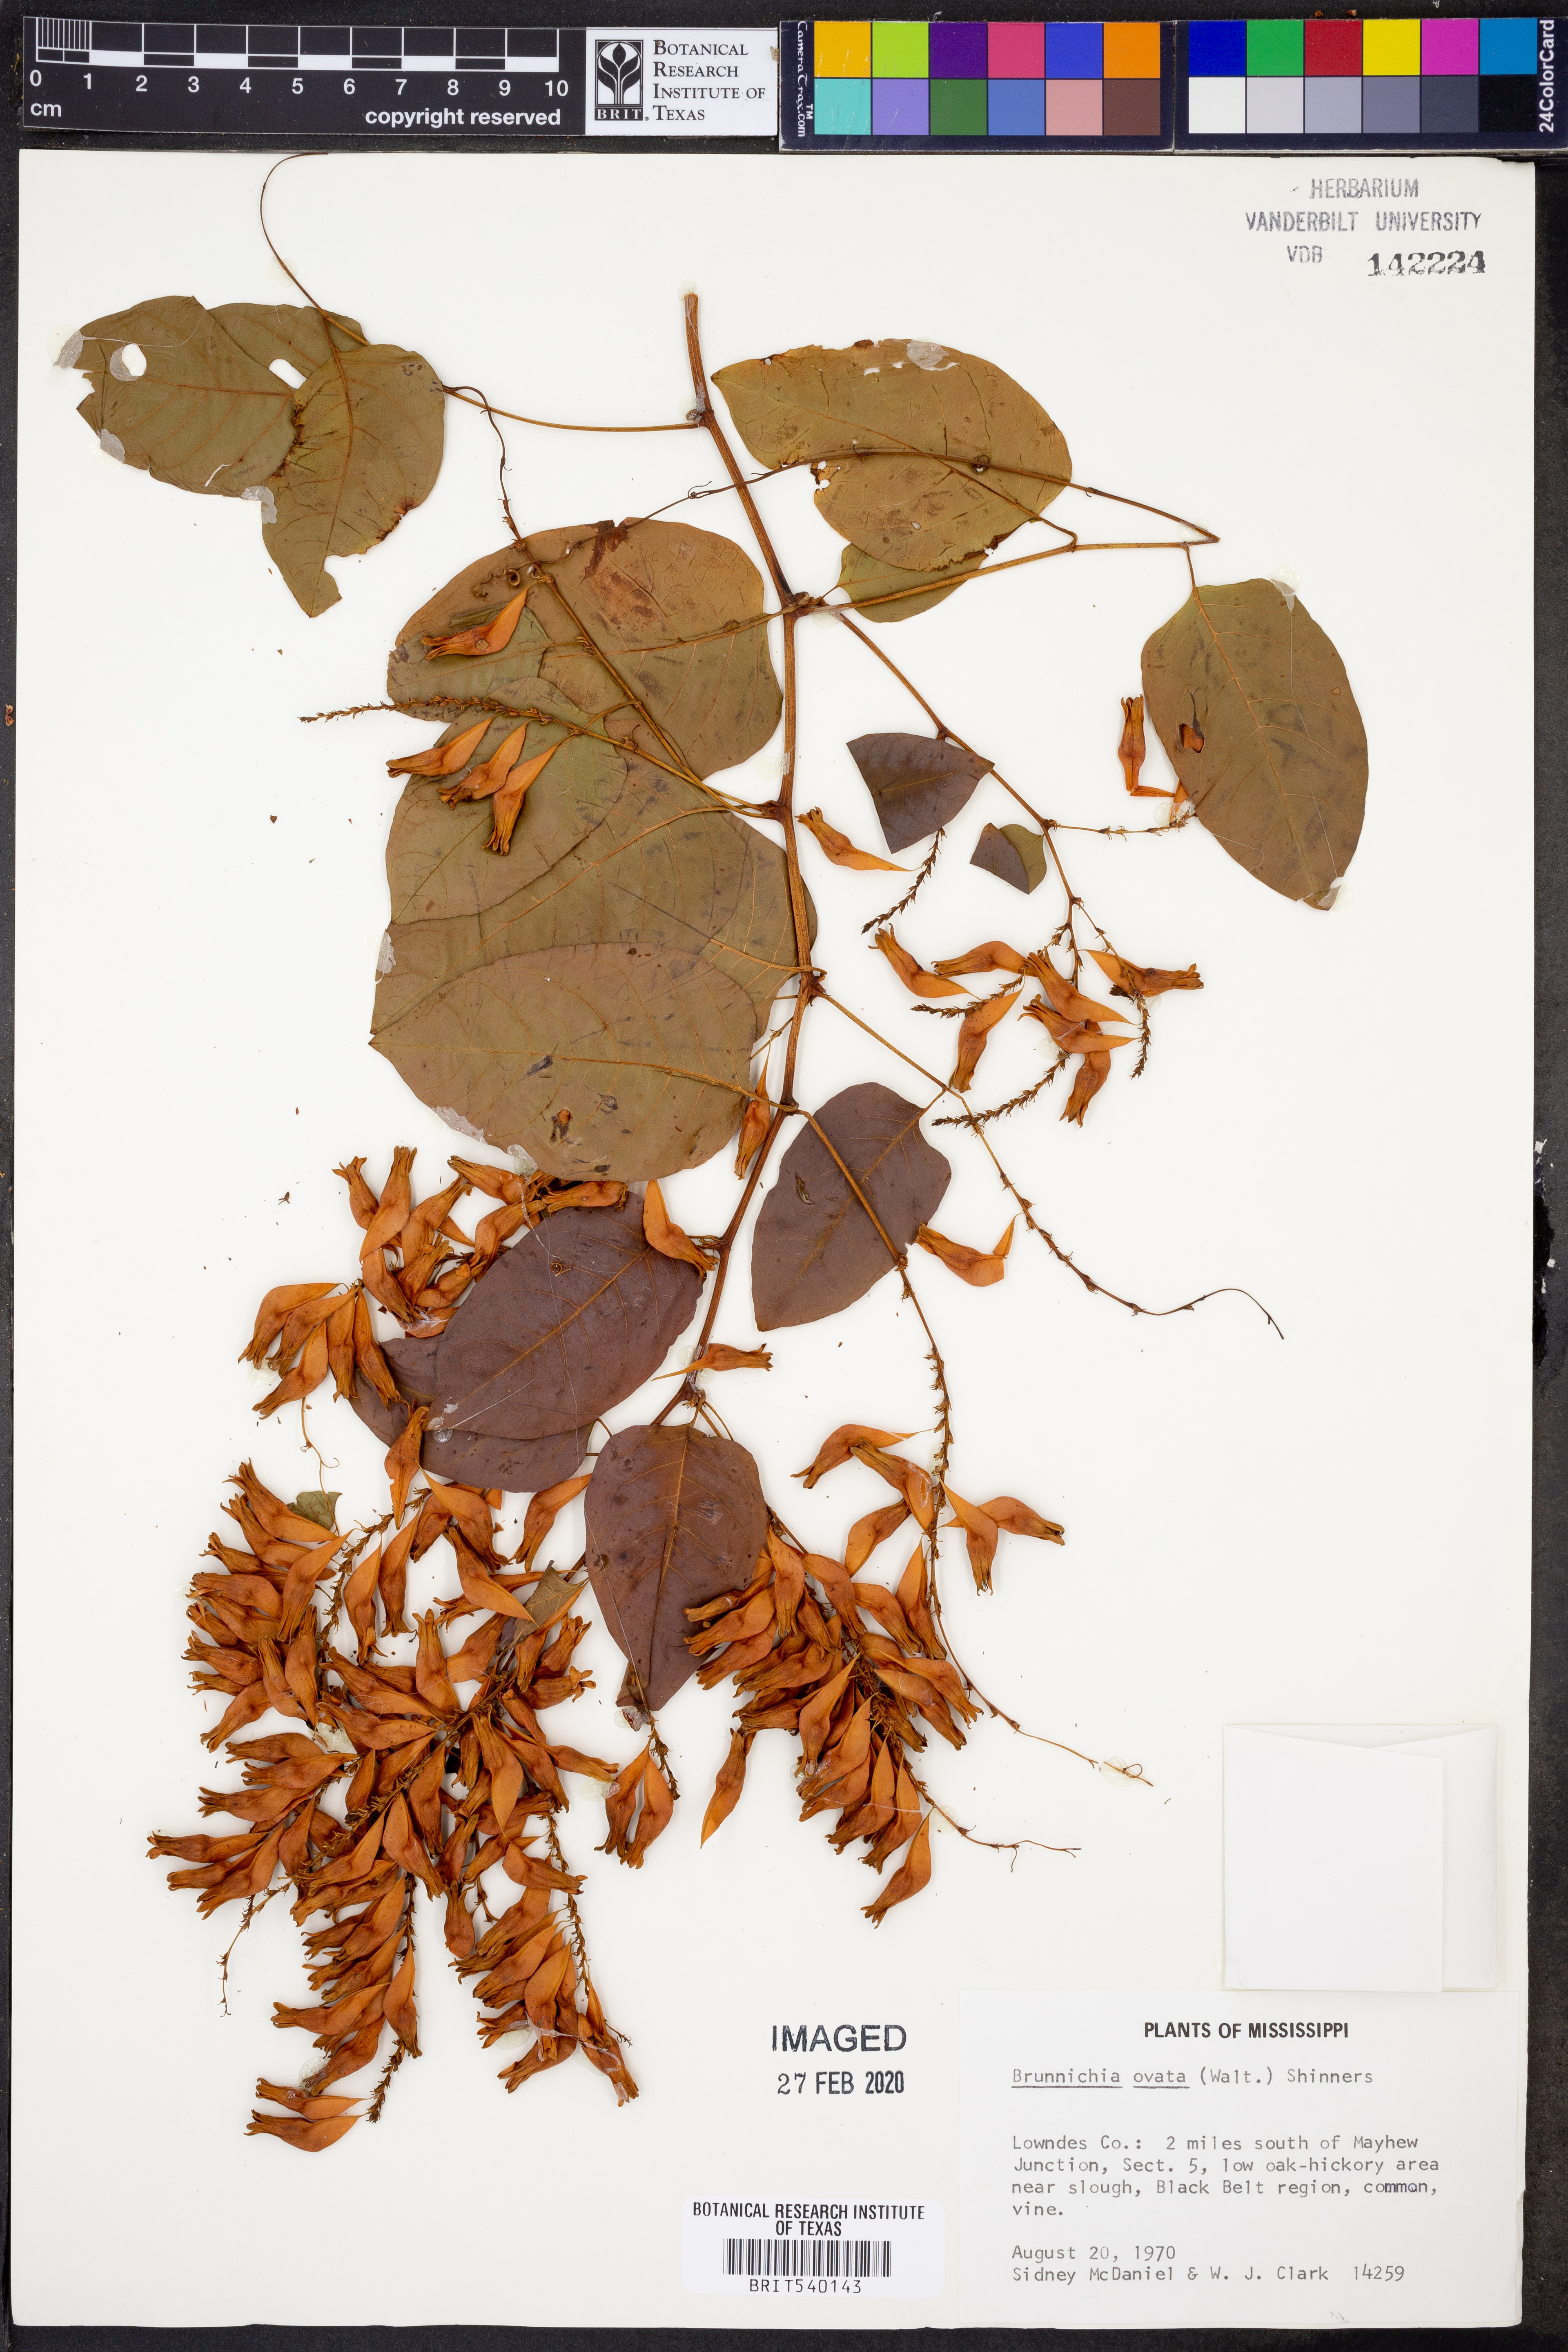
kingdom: Plantae
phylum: Tracheophyta
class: Magnoliopsida
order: Caryophyllales
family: Polygonaceae
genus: Brunnichia
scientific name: Brunnichia ovata
